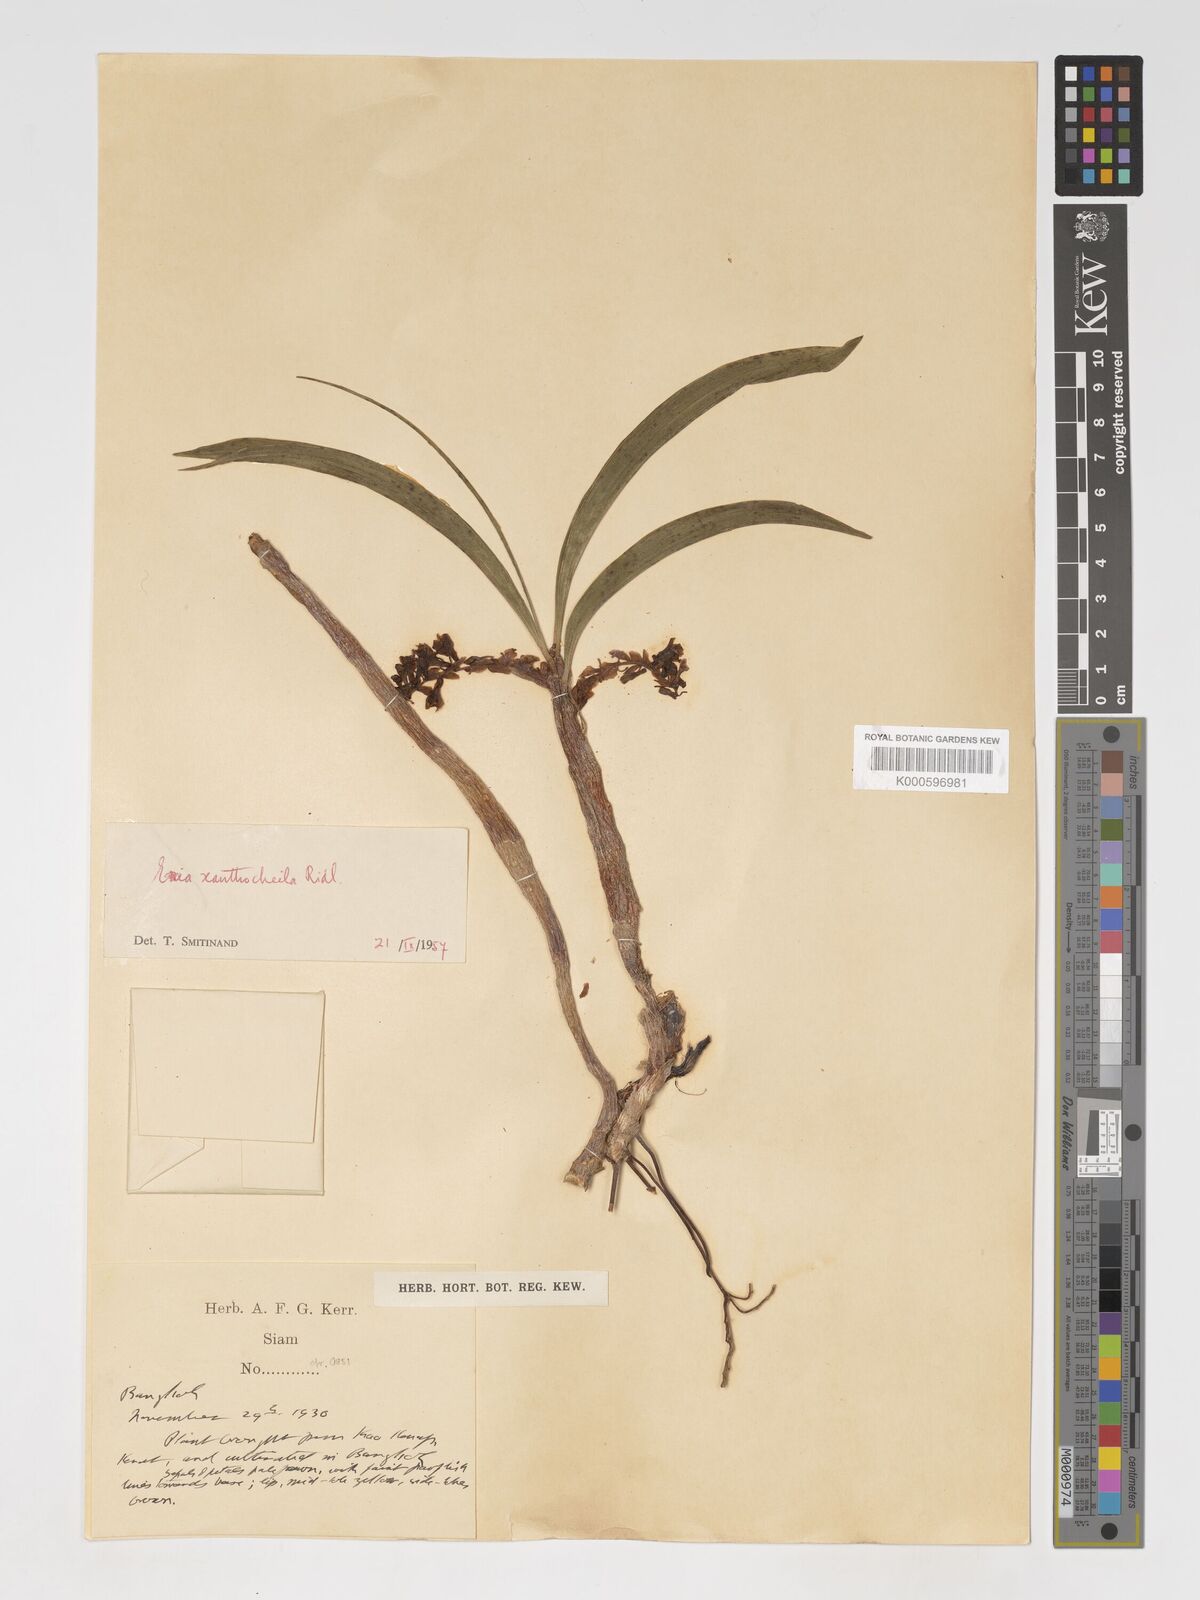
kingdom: Plantae
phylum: Tracheophyta
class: Liliopsida
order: Asparagales
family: Orchidaceae
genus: Pinalia
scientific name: Pinalia xanthocheila
